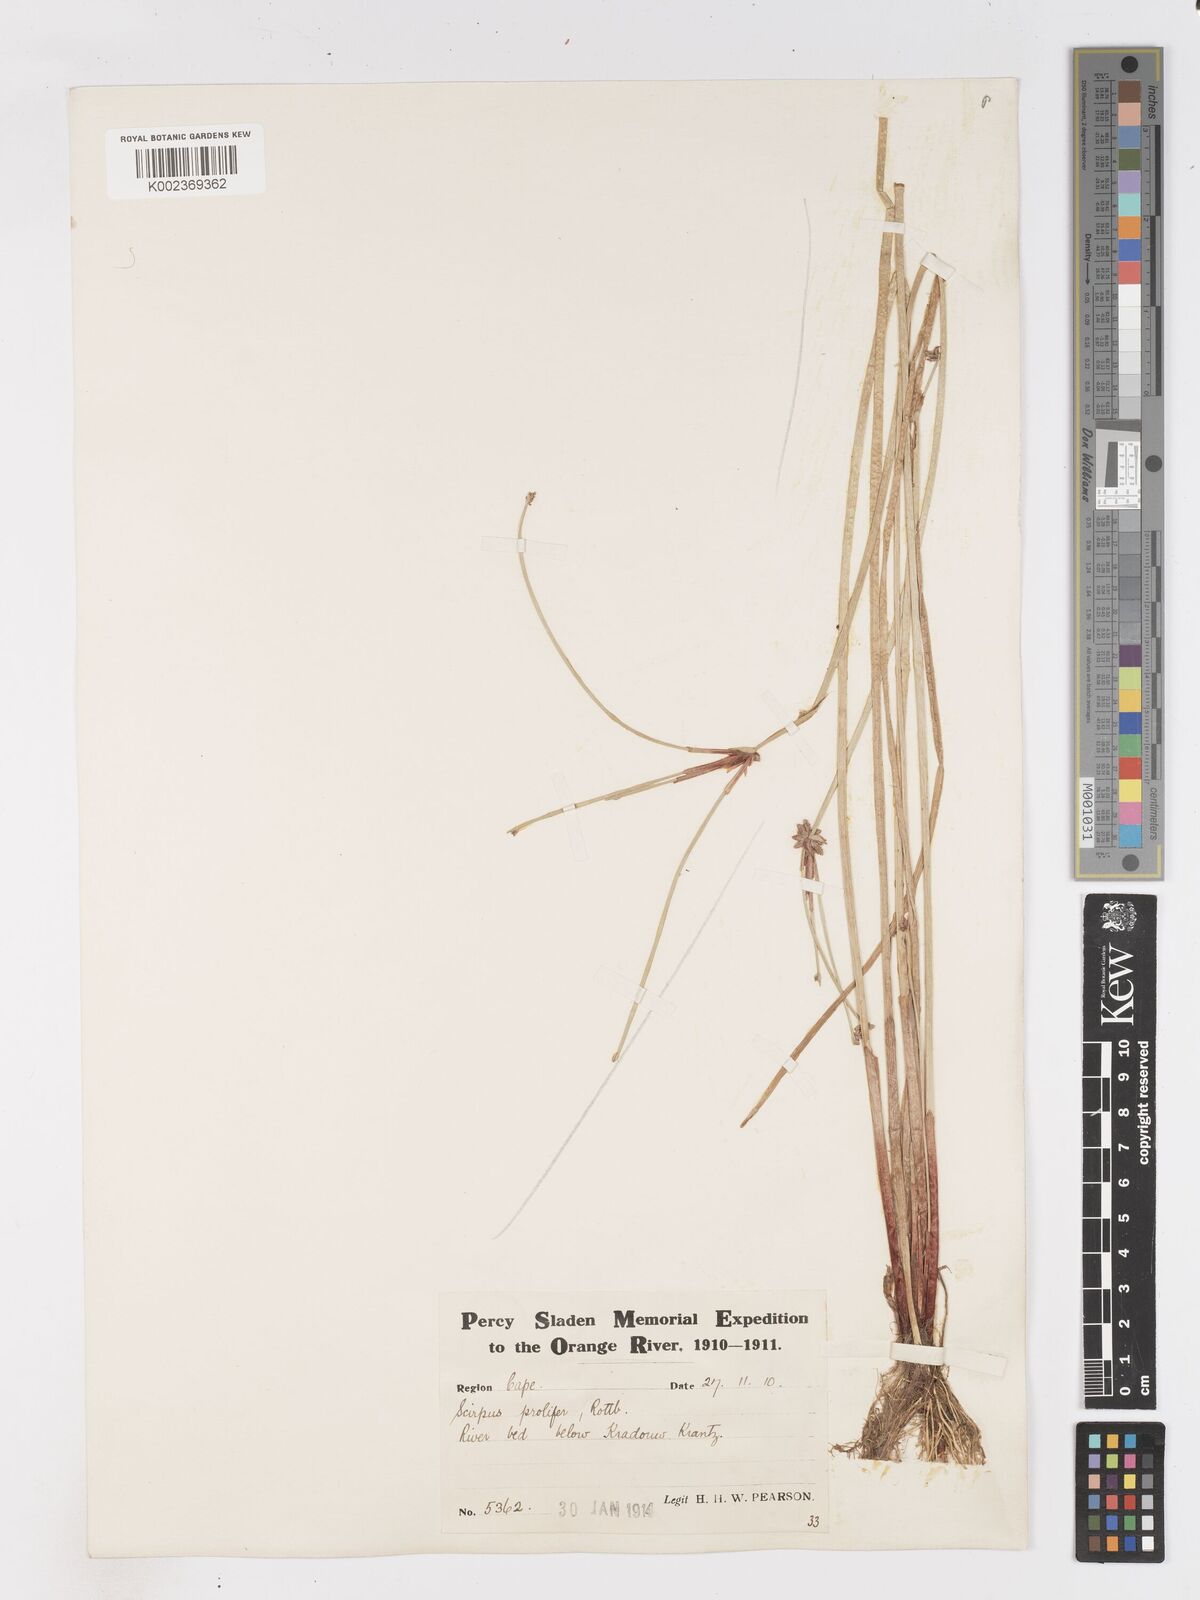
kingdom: Plantae
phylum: Tracheophyta
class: Liliopsida
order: Poales
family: Cyperaceae
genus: Isolepis
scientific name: Isolepis prolifera
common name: Proliferating bulrush
